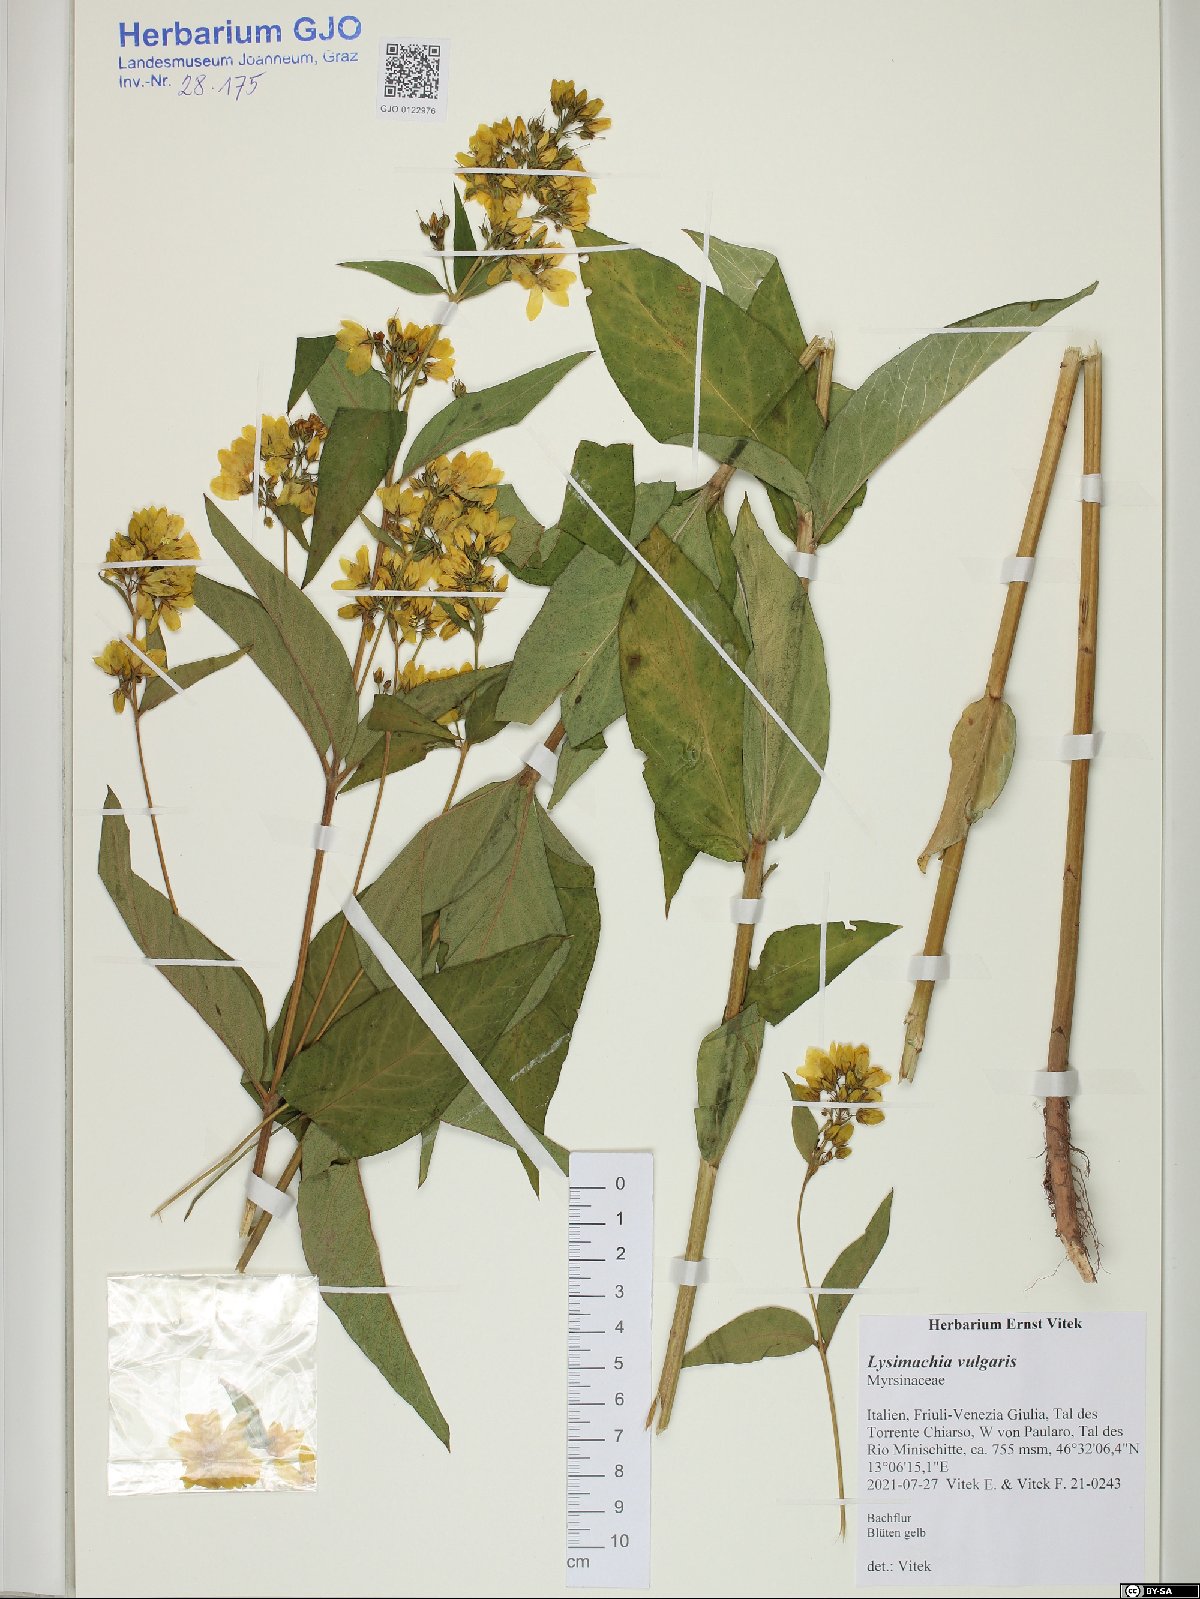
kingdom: Plantae
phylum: Tracheophyta
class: Magnoliopsida
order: Ericales
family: Primulaceae
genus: Lysimachia
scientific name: Lysimachia vulgaris
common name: Yellow loosestrife
